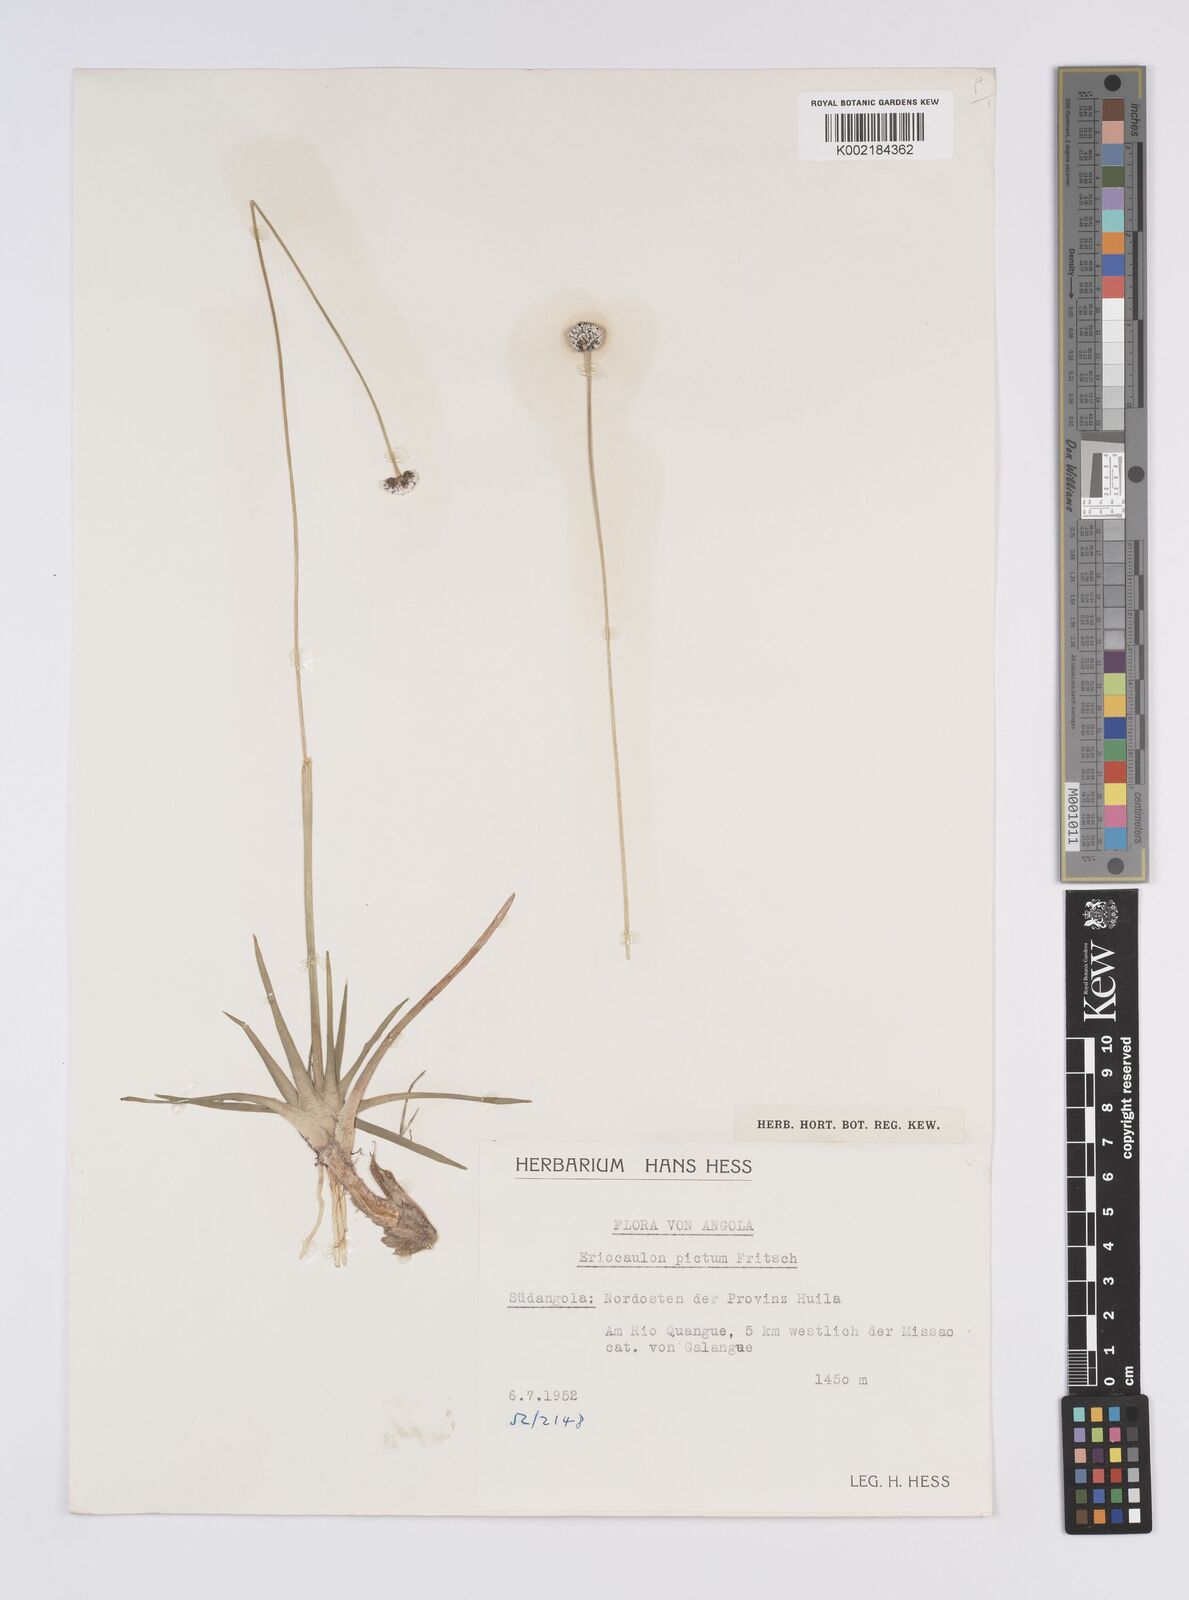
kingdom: Plantae
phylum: Tracheophyta
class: Liliopsida
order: Poales
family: Eriocaulaceae
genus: Eriocaulon
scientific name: Eriocaulon pictum
